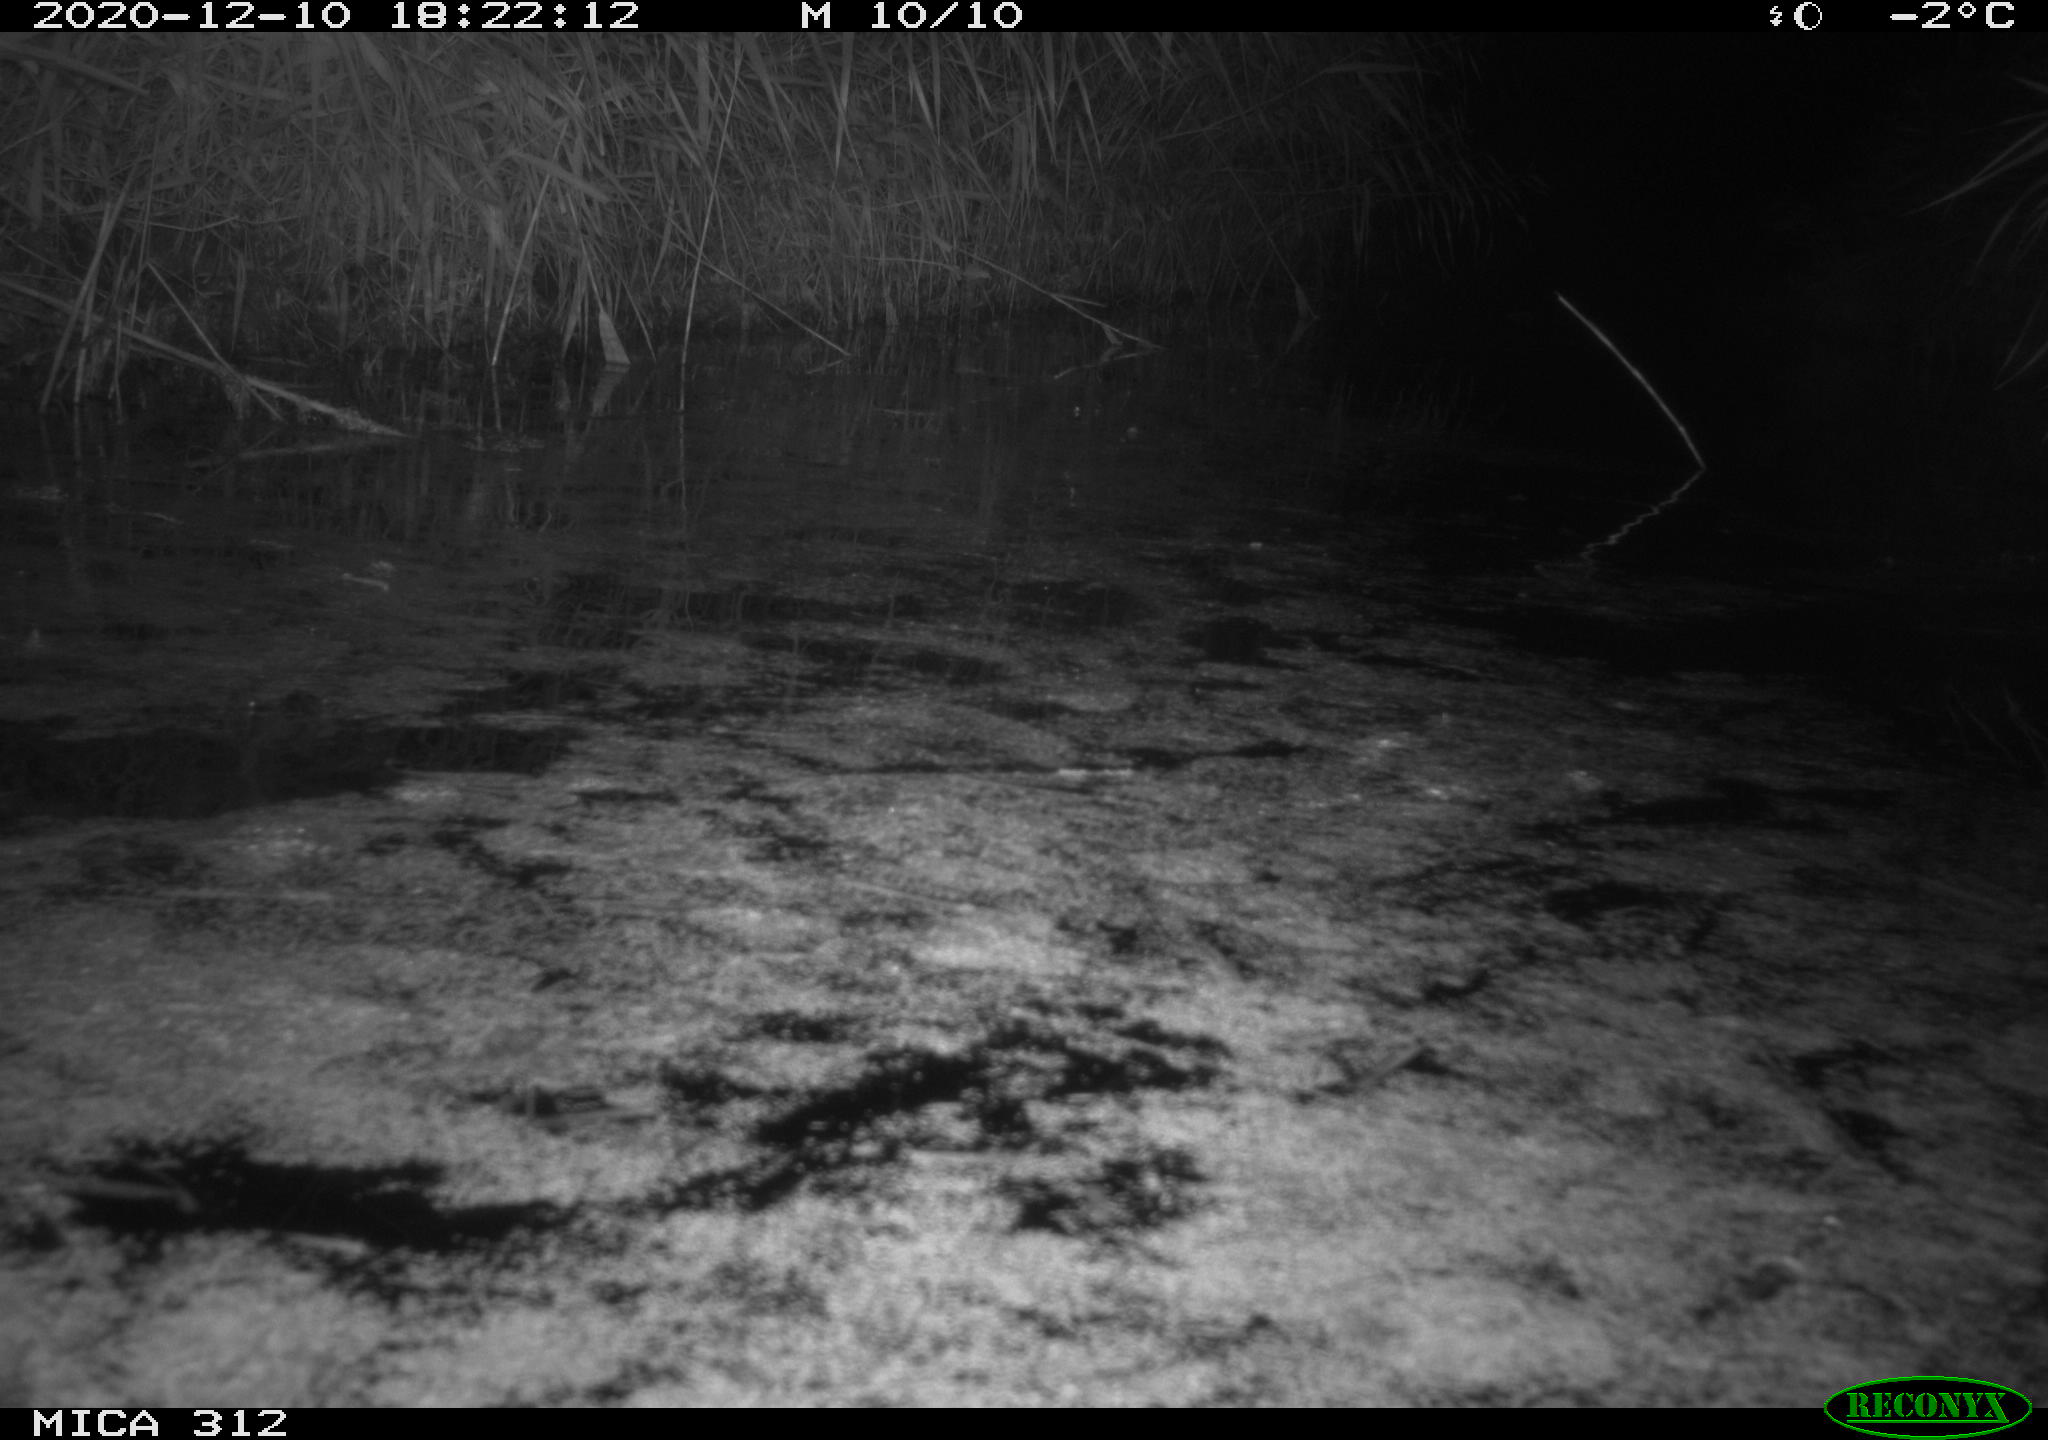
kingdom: Animalia
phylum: Chordata
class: Aves
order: Gruiformes
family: Rallidae
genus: Fulica
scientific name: Fulica atra
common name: Eurasian coot
